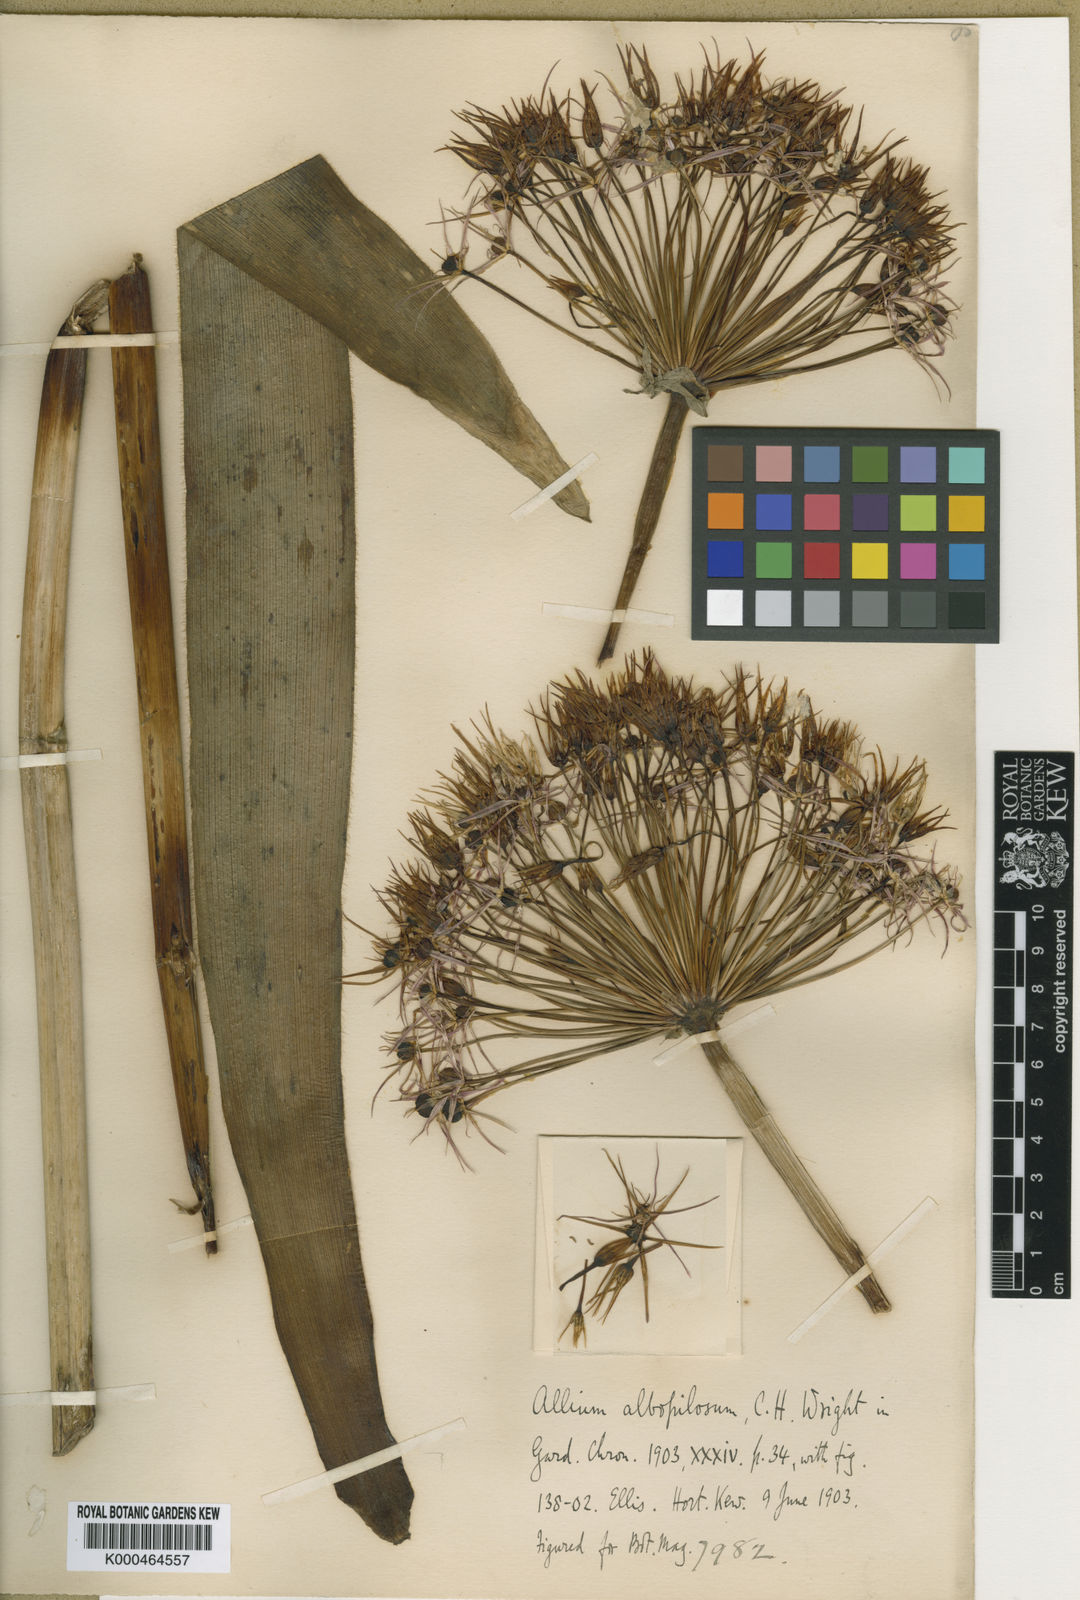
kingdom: Plantae
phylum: Tracheophyta
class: Liliopsida
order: Asparagales
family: Amaryllidaceae
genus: Allium
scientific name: Allium cristophii
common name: Persian onion
